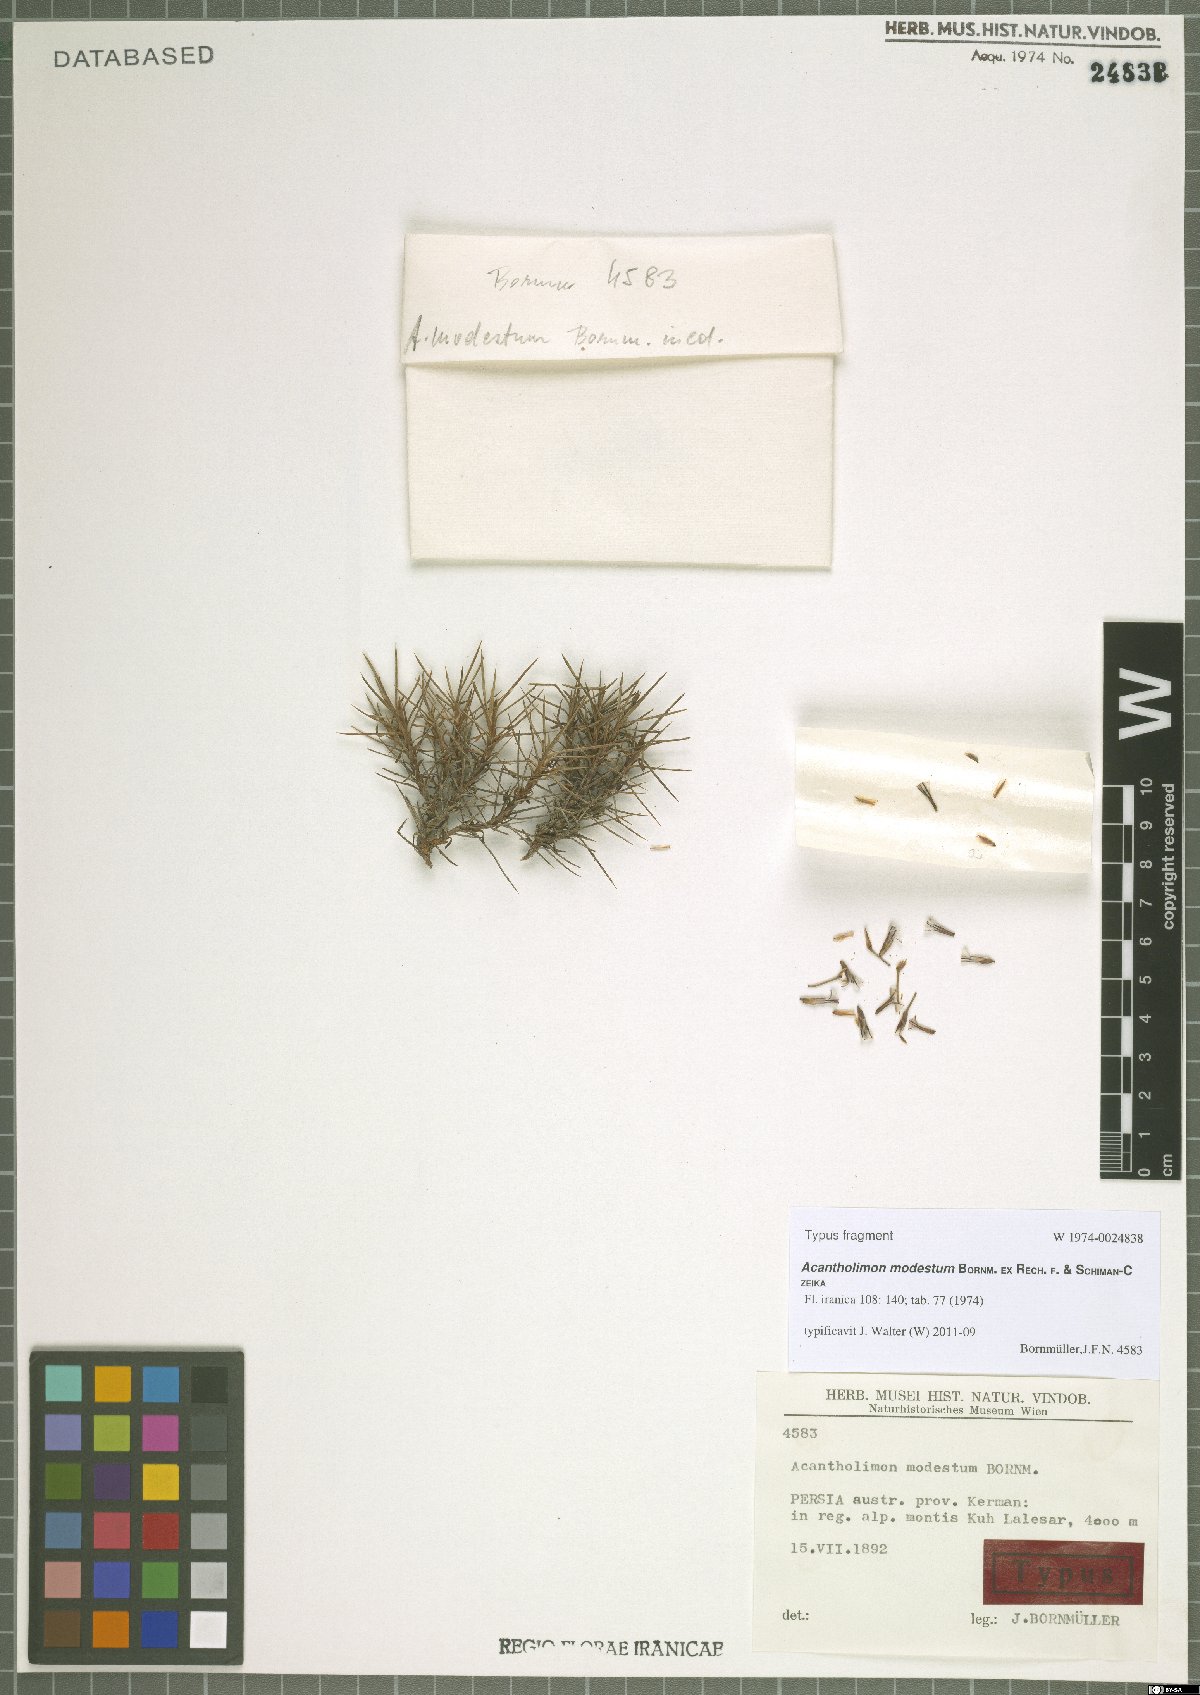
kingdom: Plantae
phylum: Tracheophyta
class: Magnoliopsida
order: Caryophyllales
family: Plumbaginaceae
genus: Acantholimon
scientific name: Acantholimon modestum
